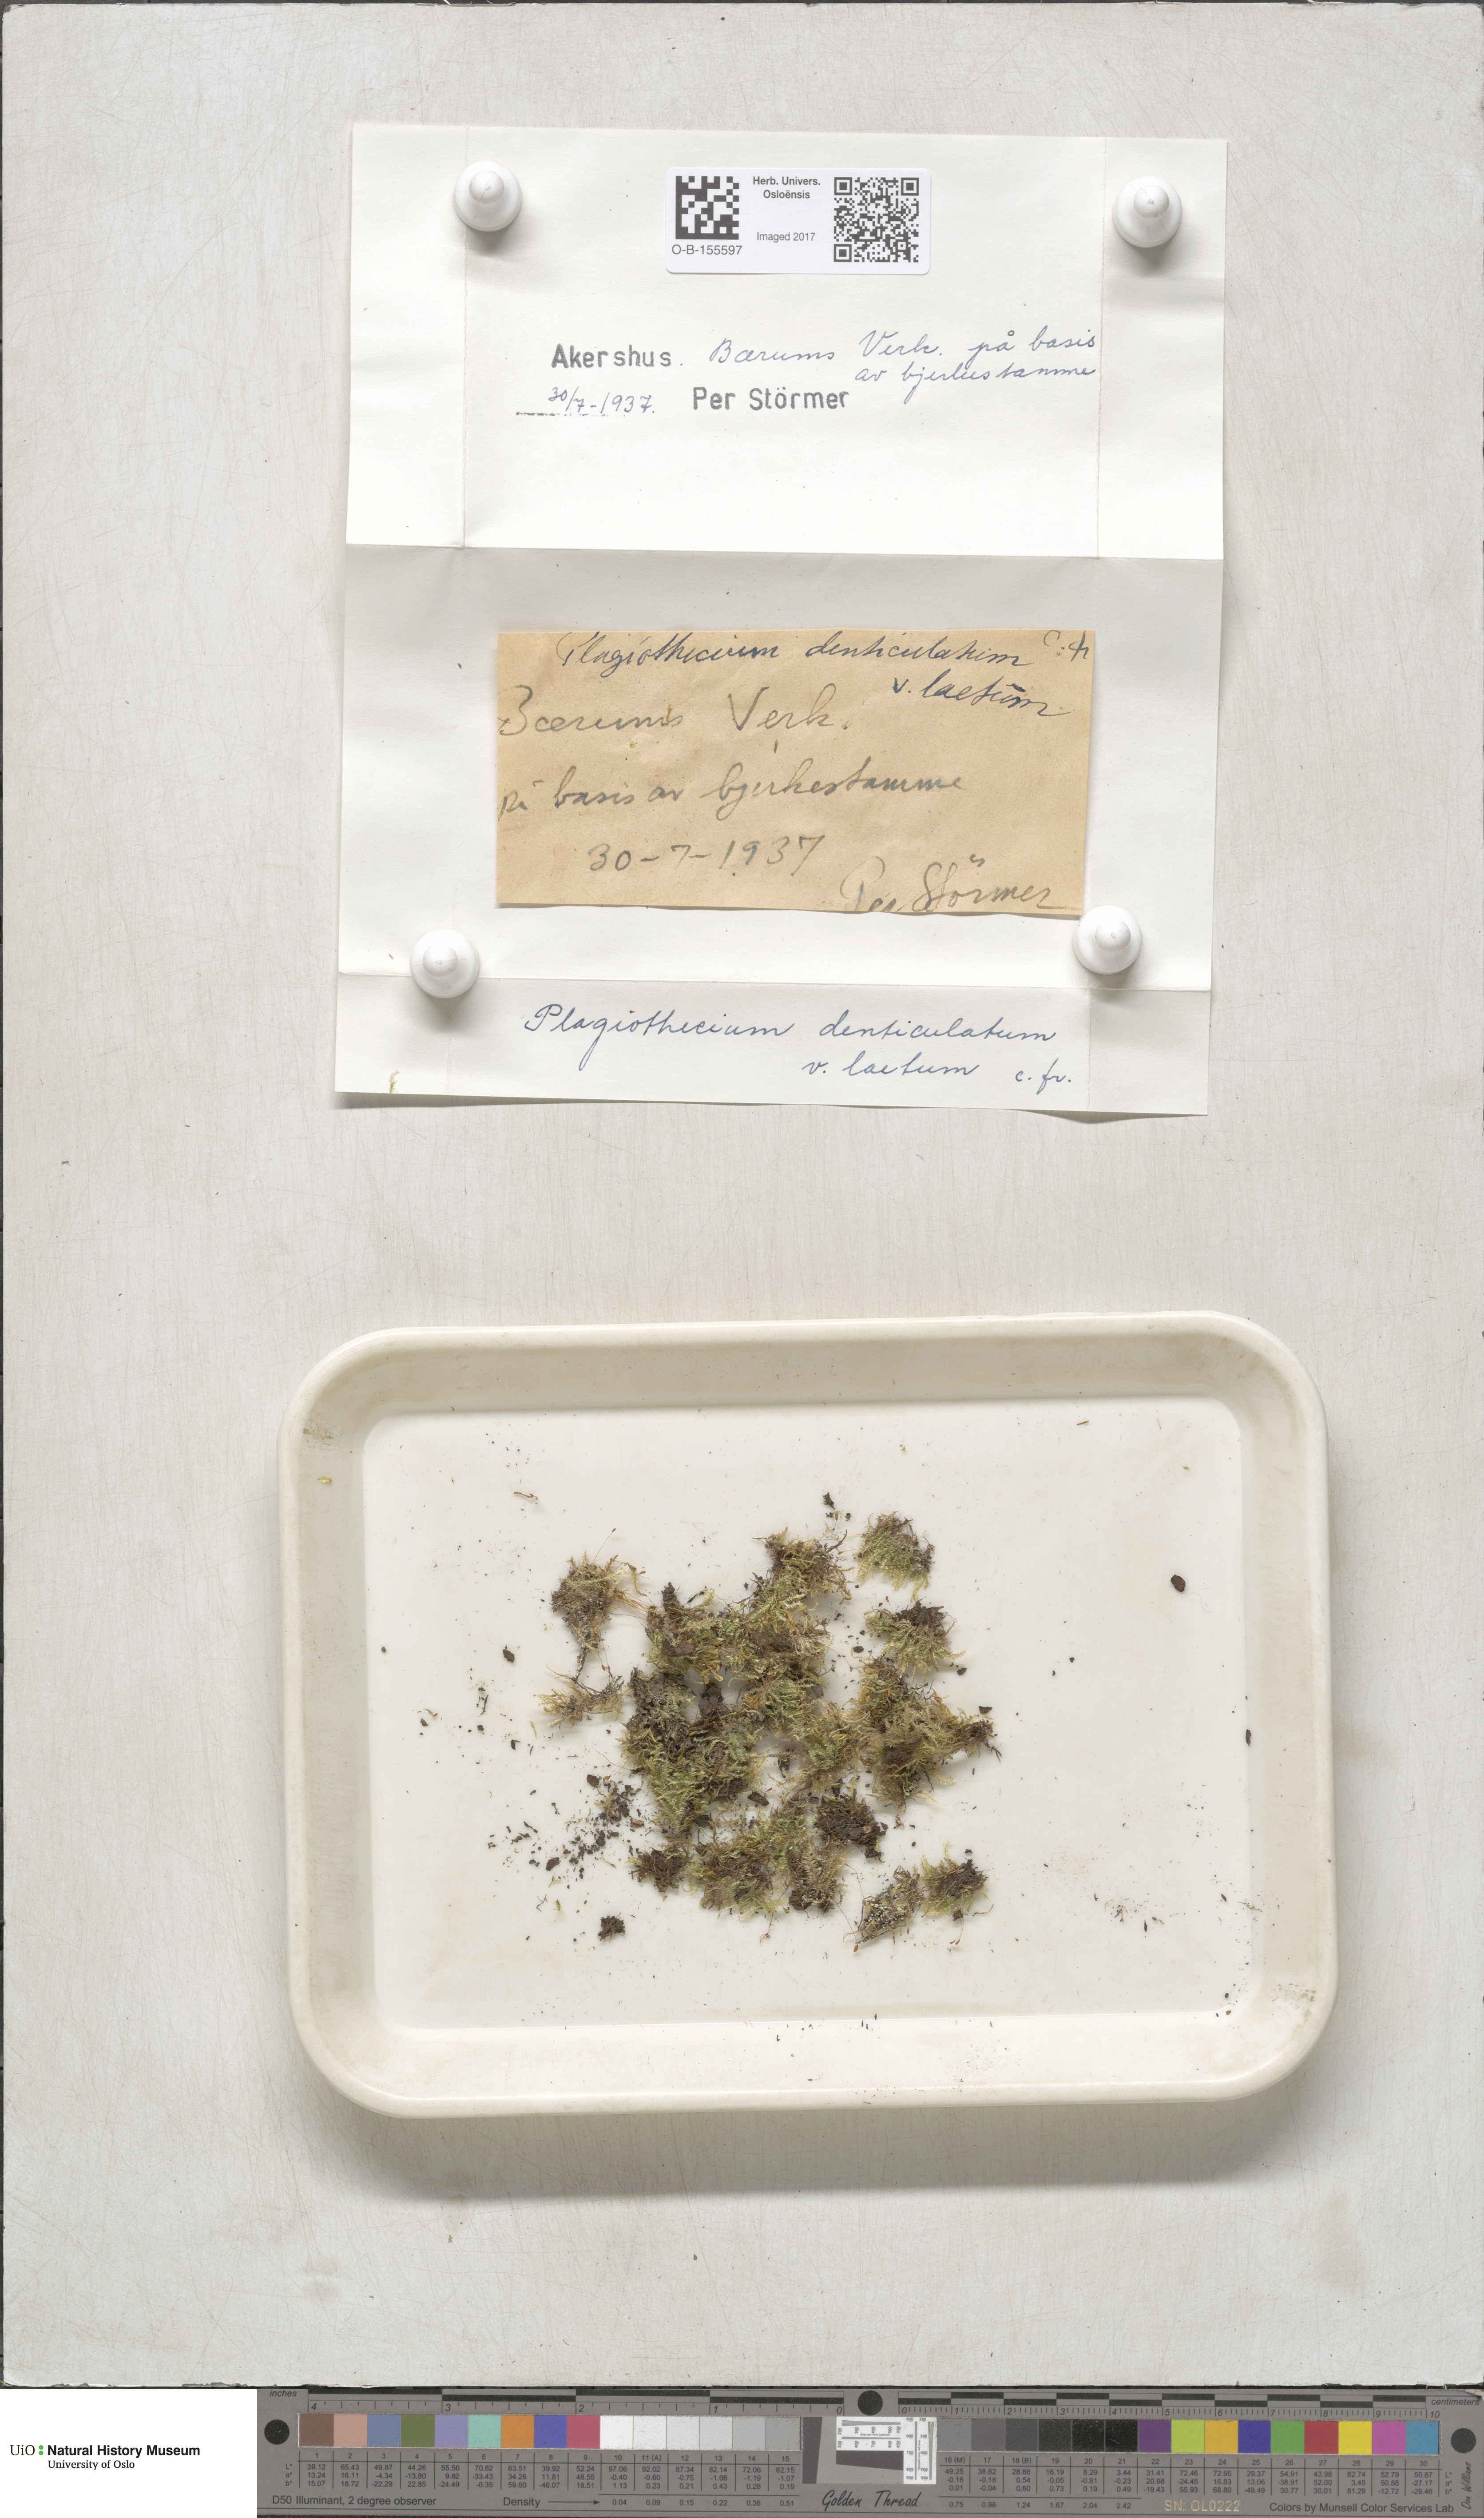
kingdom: Plantae
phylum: Bryophyta
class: Bryopsida
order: Hypnales
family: Plagiotheciaceae
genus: Plagiothecium
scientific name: Plagiothecium laetum
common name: Bright silk moss
